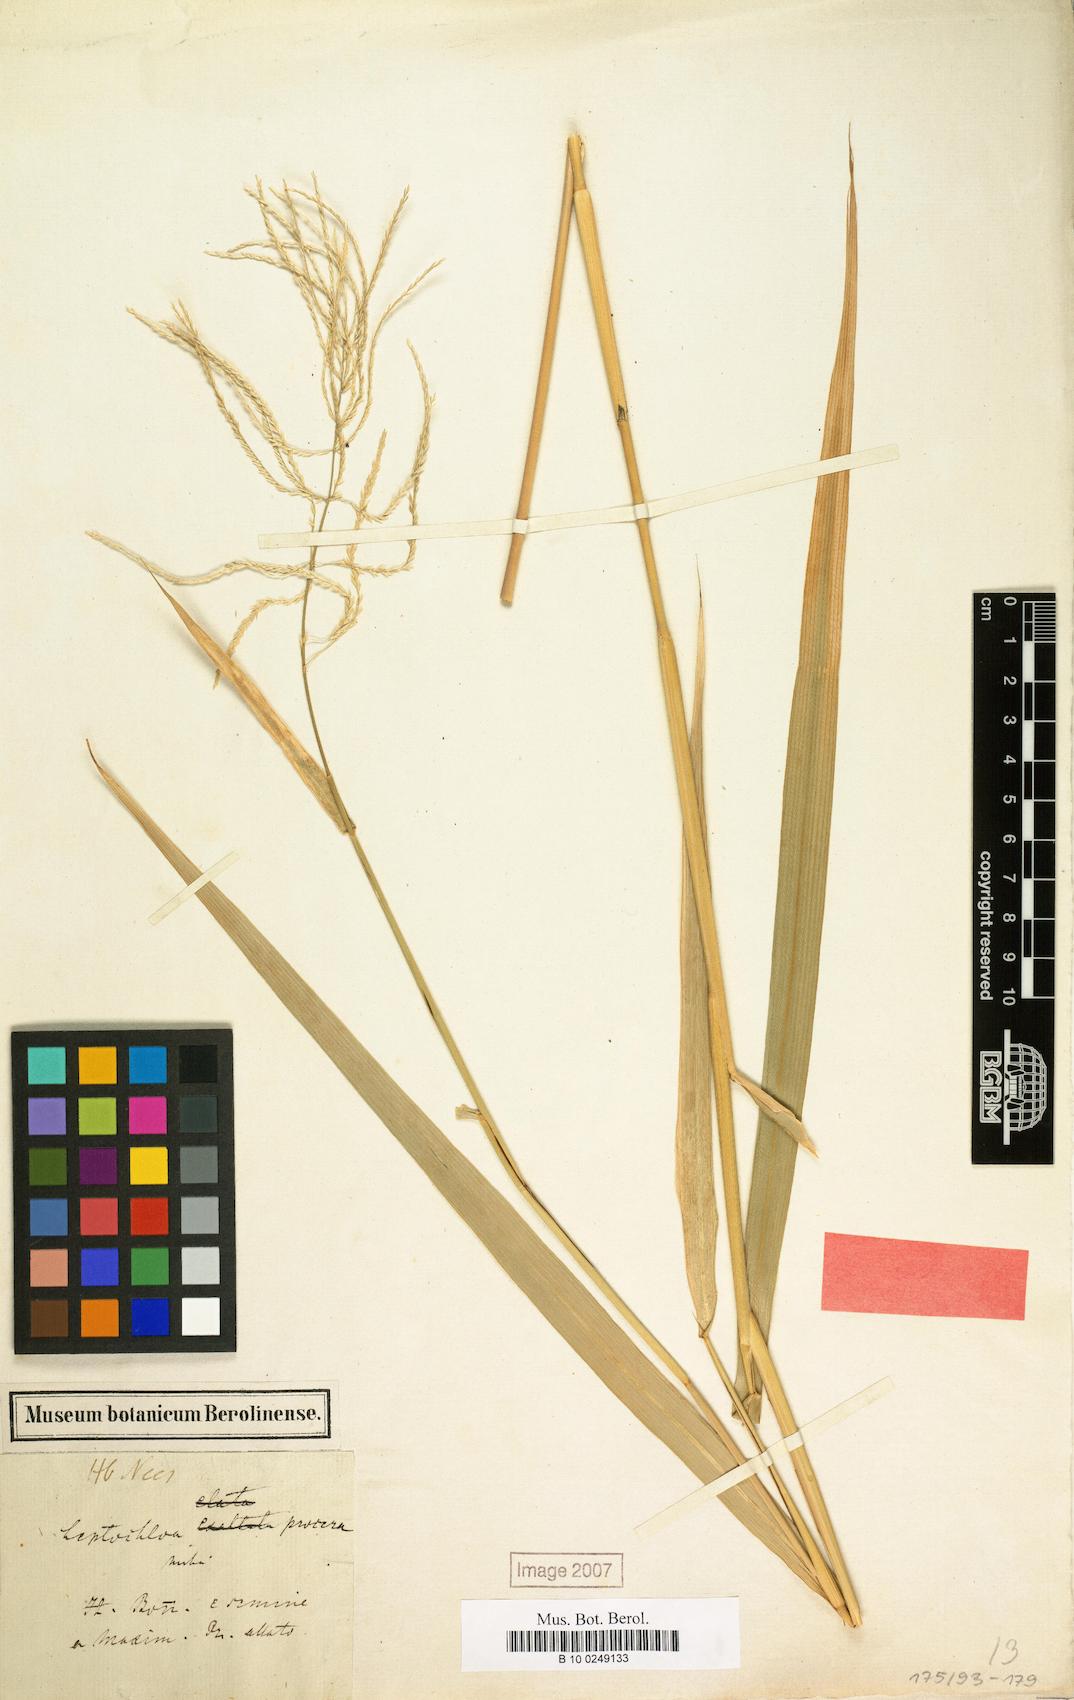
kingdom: Plantae
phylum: Tracheophyta
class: Liliopsida
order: Poales
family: Poaceae
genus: Leptochloa
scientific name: Leptochloa virgata
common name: Tropical sprangletop
